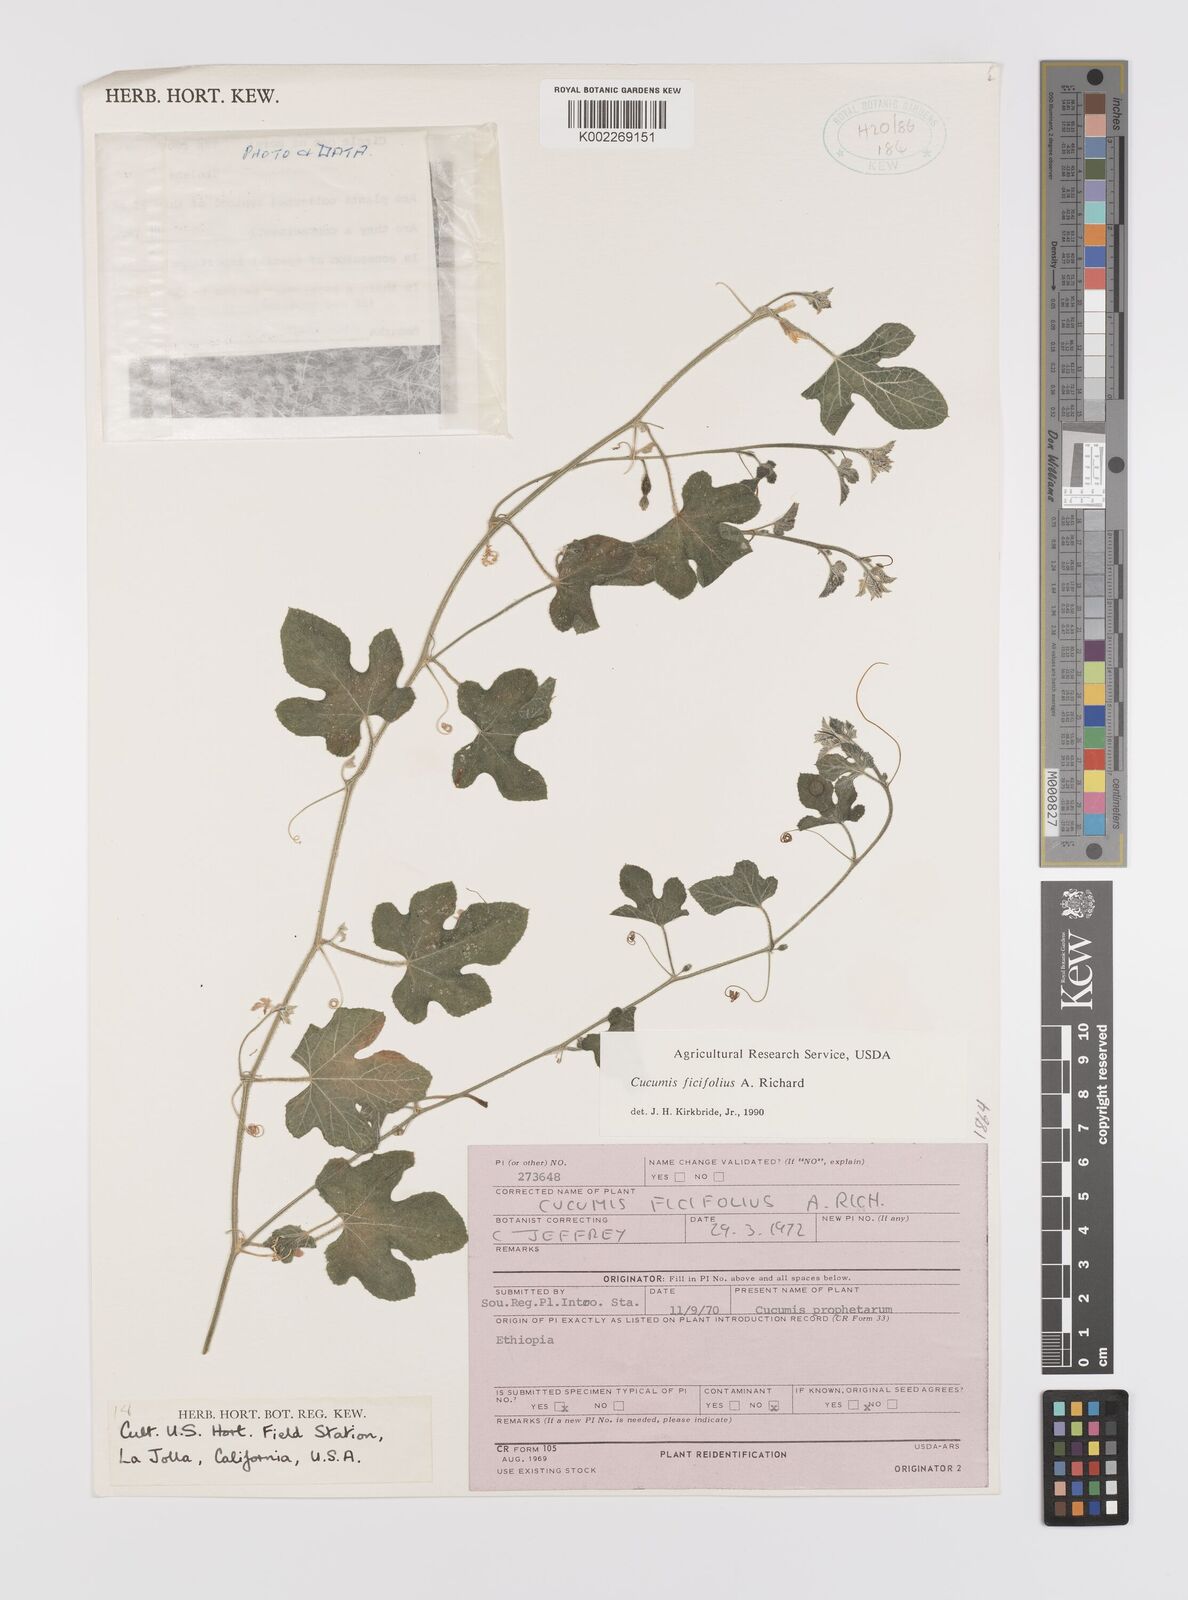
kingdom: Plantae
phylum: Tracheophyta
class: Magnoliopsida
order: Cucurbitales
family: Cucurbitaceae
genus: Cucumis
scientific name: Cucumis ficifolius
